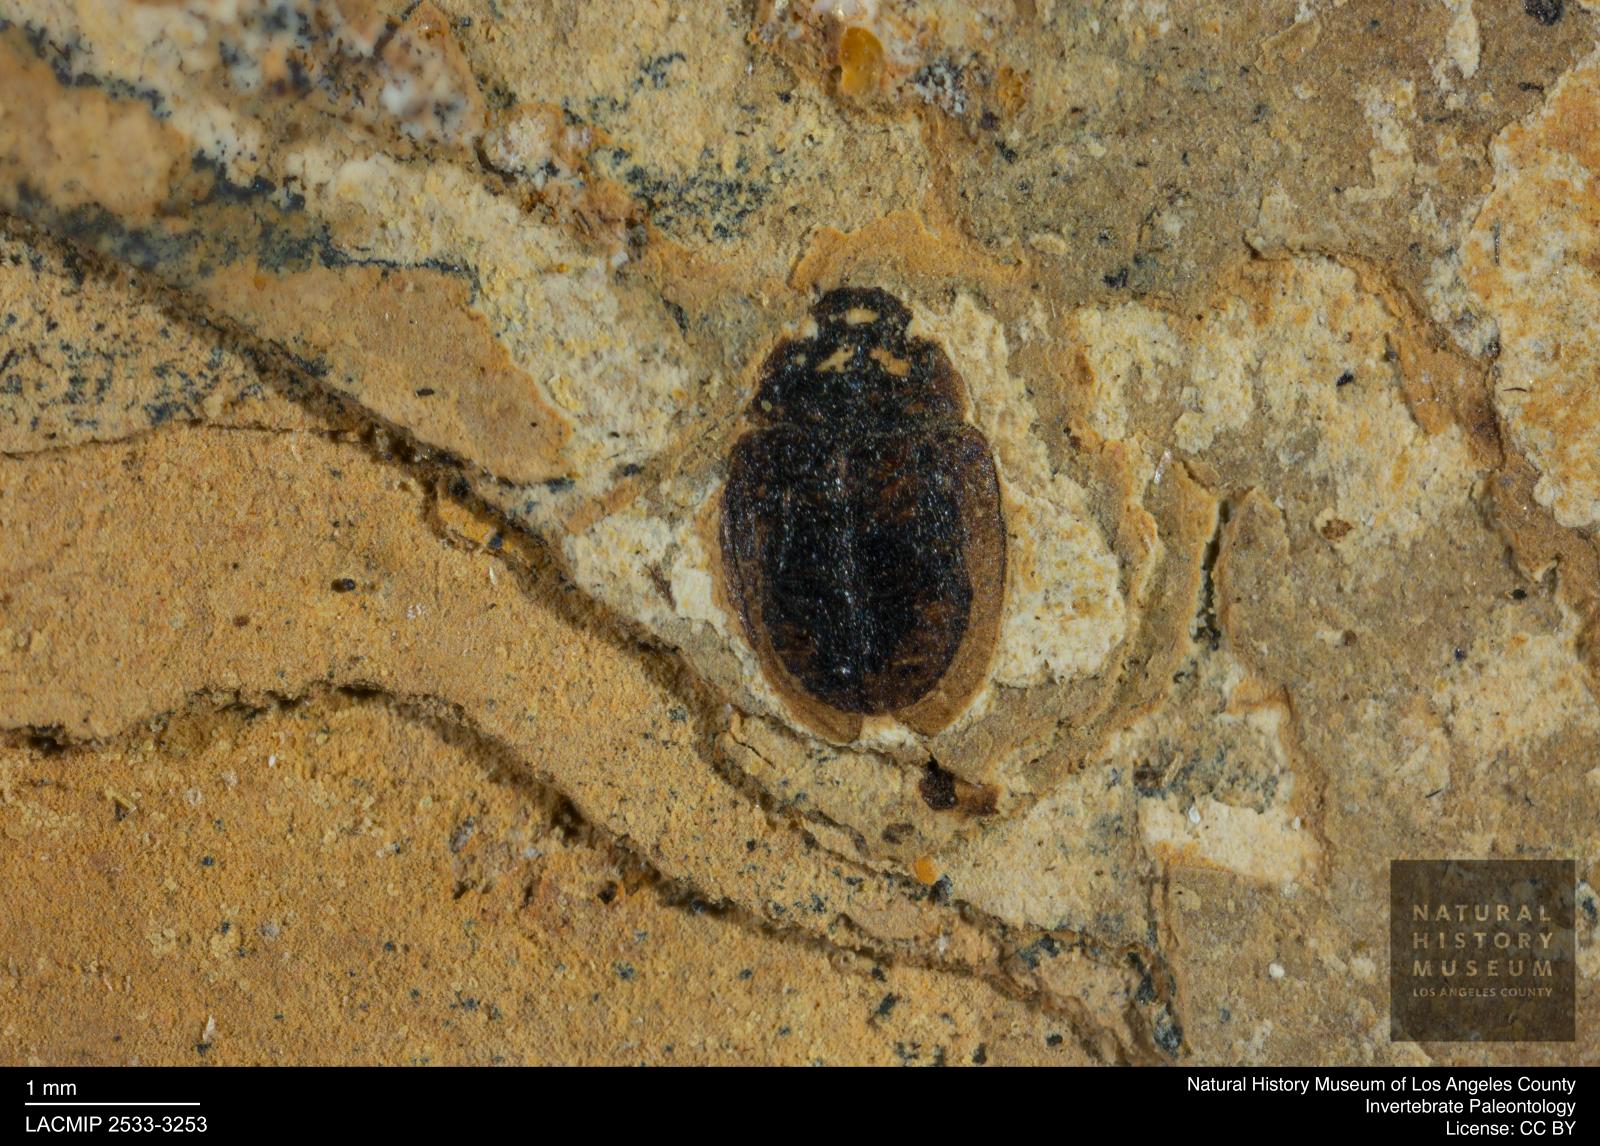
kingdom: Animalia
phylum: Arthropoda
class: Insecta
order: Coleoptera
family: Hydrophilidae
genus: Paracymus
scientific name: Paracymus excitatus
